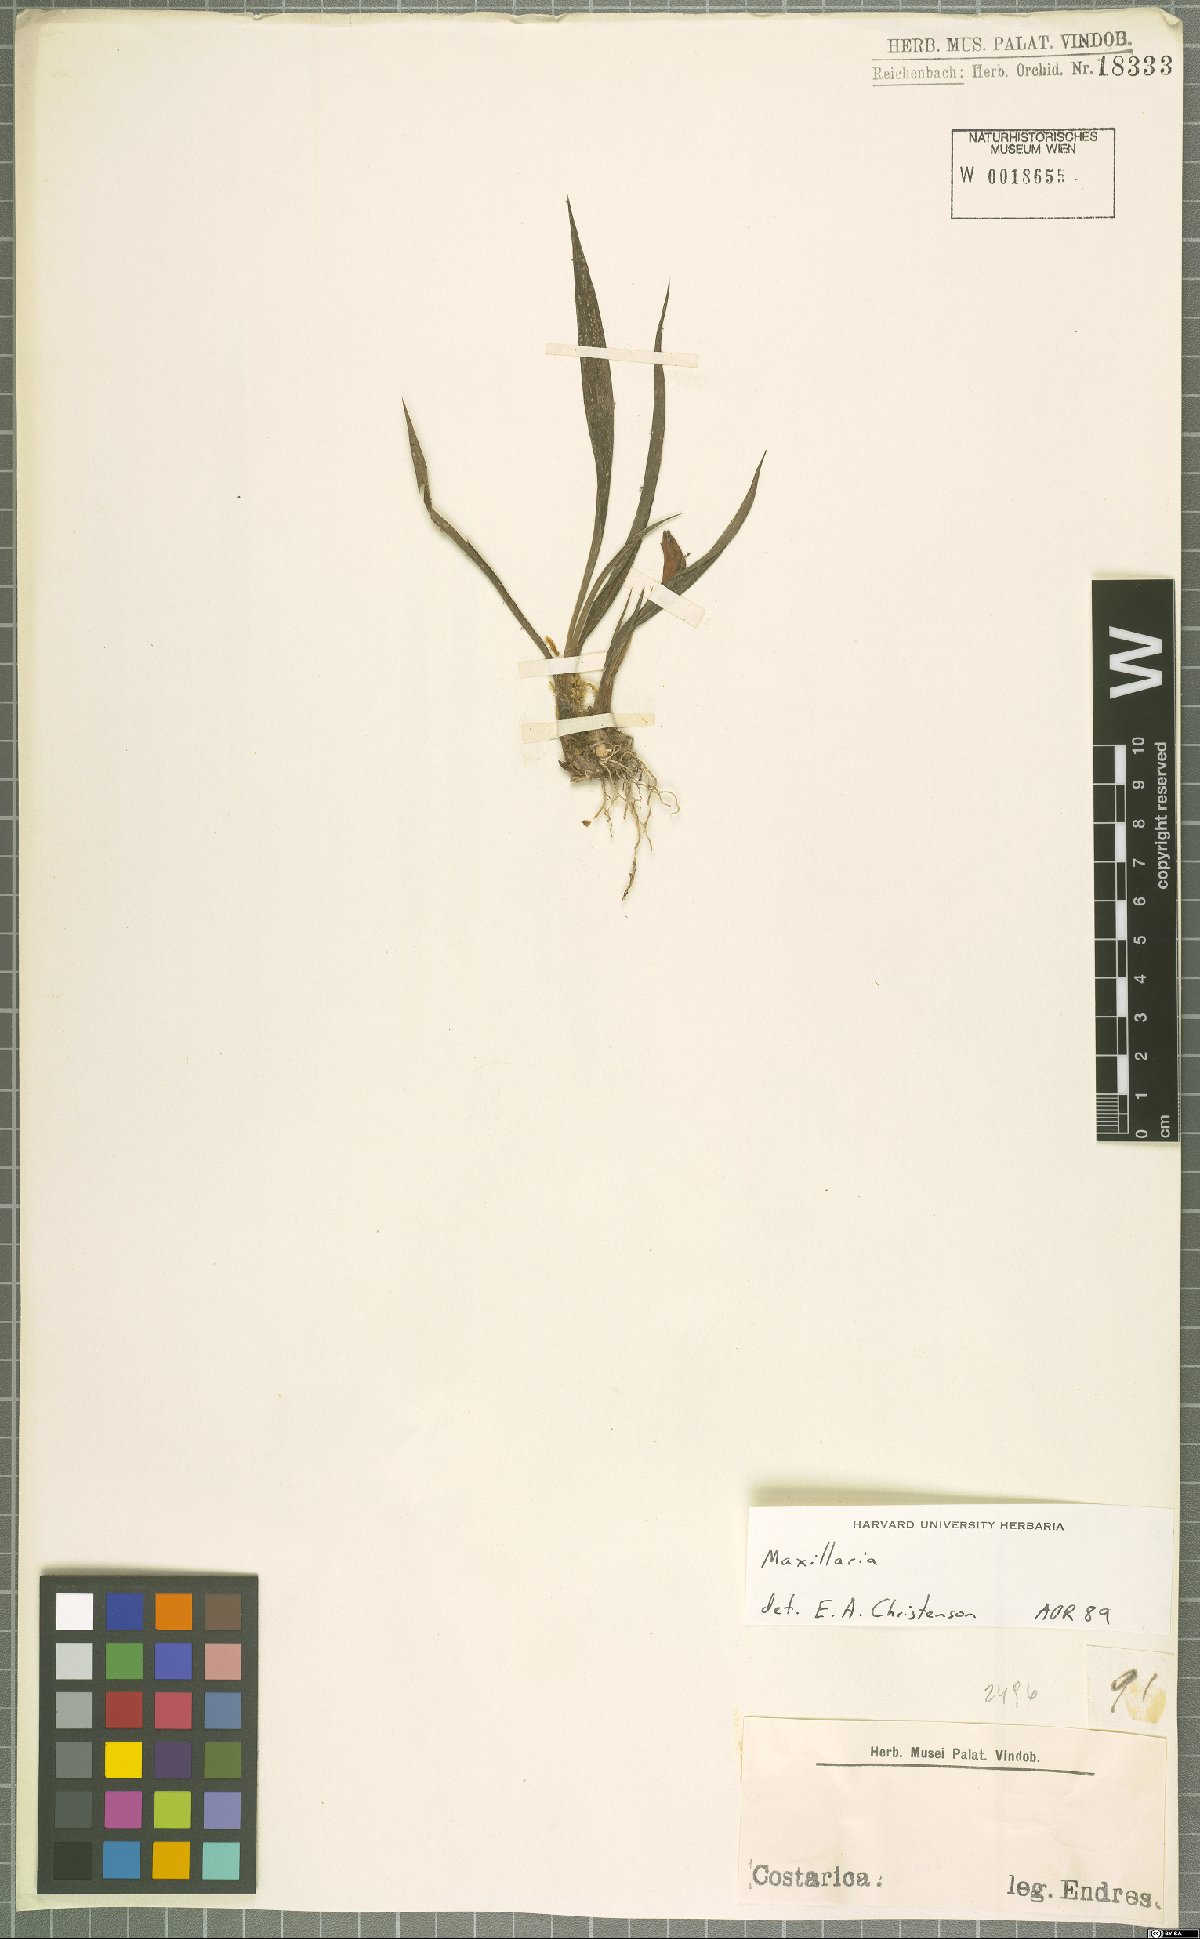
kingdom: Plantae
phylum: Tracheophyta
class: Liliopsida
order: Asparagales
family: Orchidaceae
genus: Maxillaria
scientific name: Maxillaria
